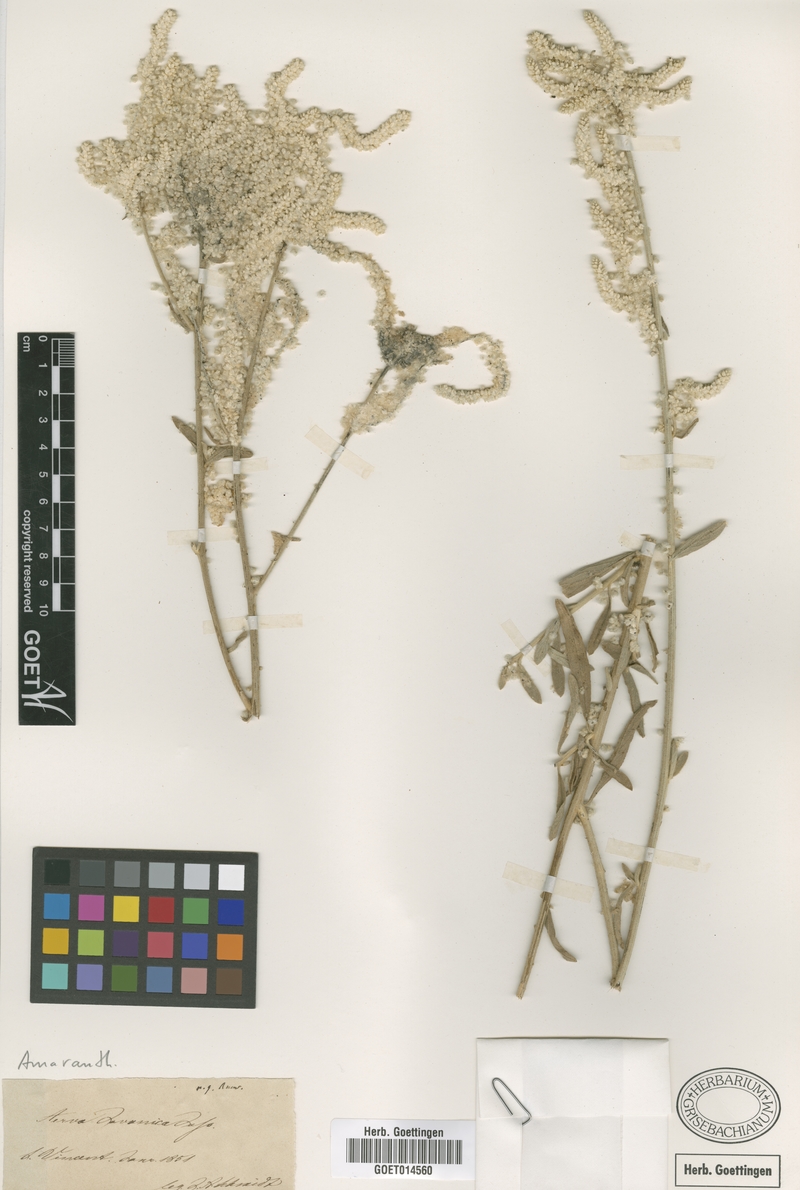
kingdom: Plantae
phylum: Tracheophyta
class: Magnoliopsida
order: Caryophyllales
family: Amaranthaceae
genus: Aerva
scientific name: Aerva javanica
